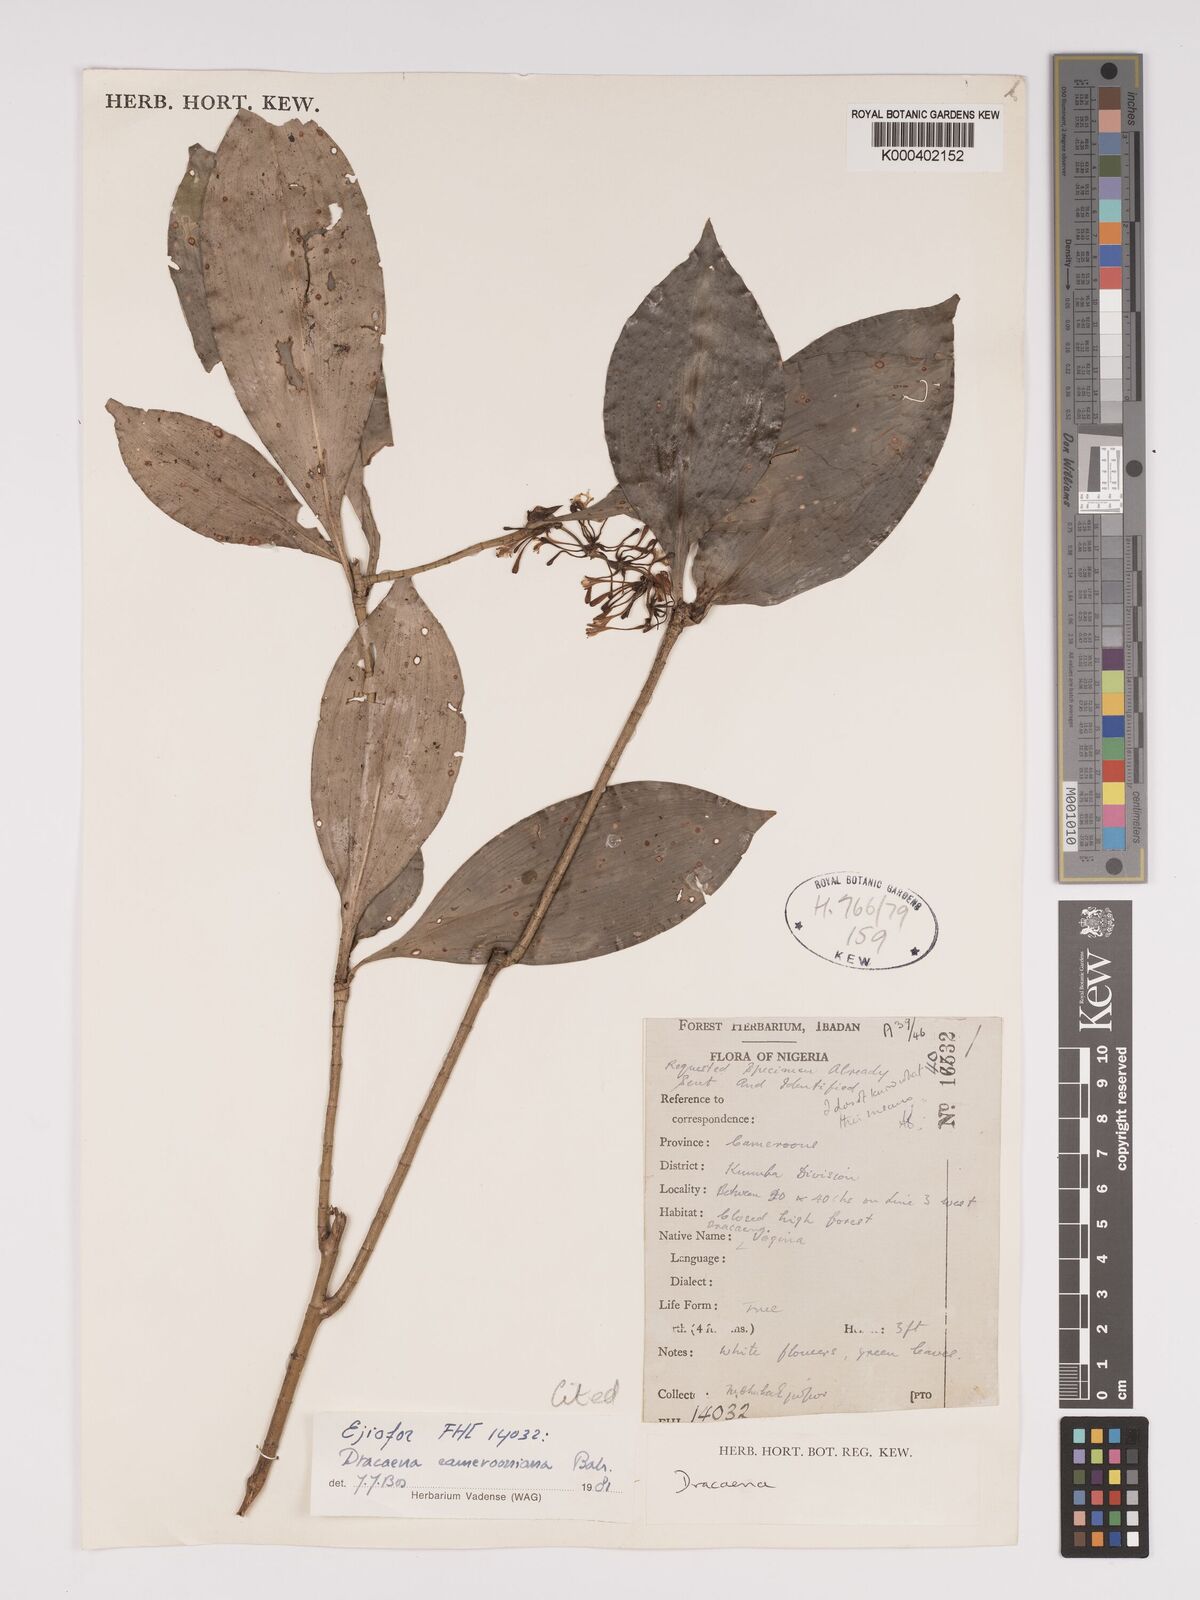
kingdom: Plantae
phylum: Tracheophyta
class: Liliopsida
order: Asparagales
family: Asparagaceae
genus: Dracaena
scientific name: Dracaena camerooniana
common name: Dragon tree
